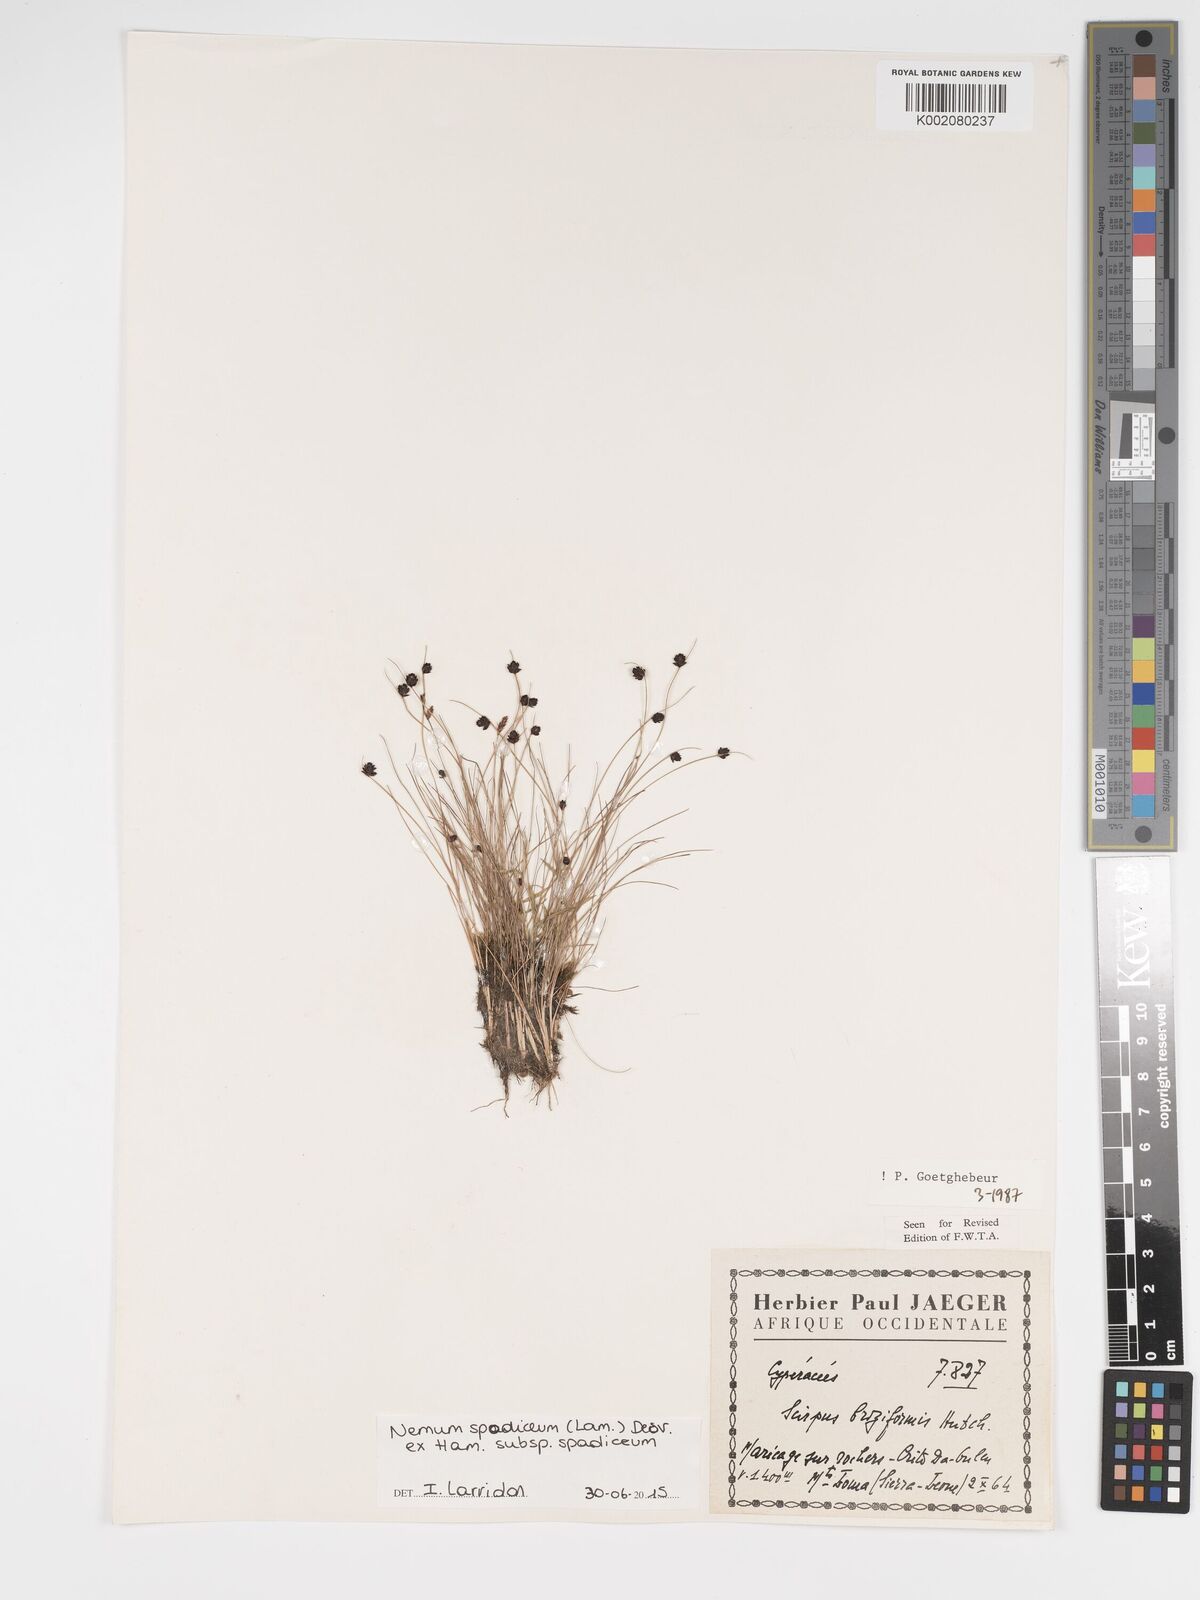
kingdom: Plantae
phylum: Tracheophyta
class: Liliopsida
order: Poales
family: Cyperaceae
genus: Bulbostylis
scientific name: Bulbostylis briziformis
